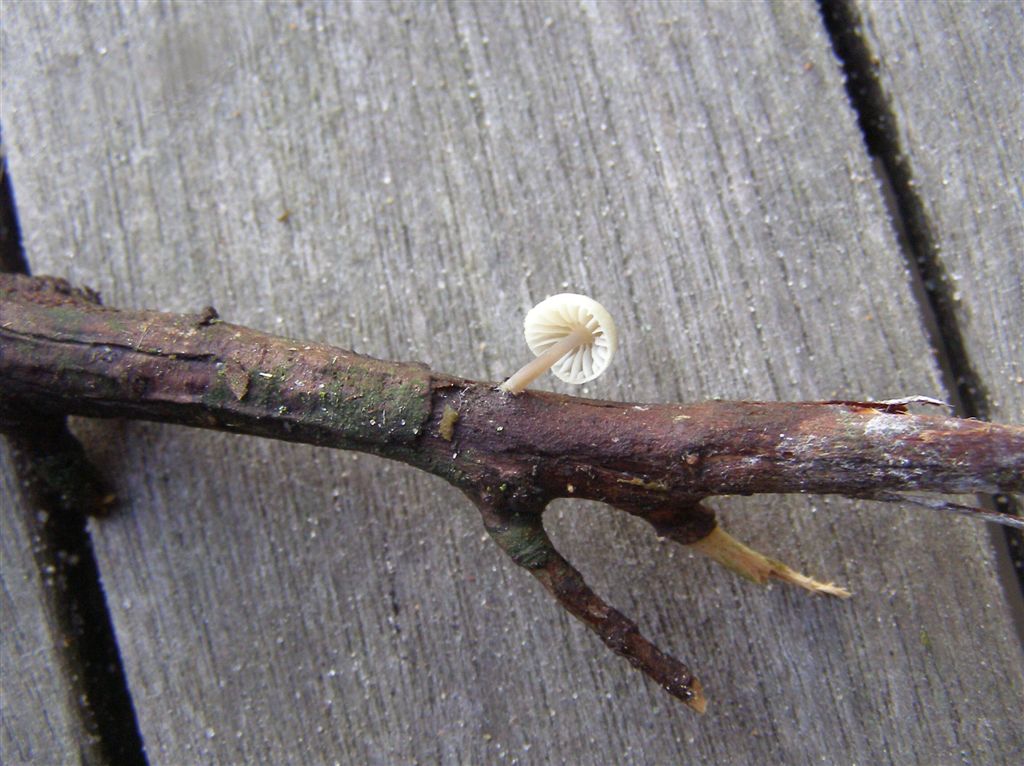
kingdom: Fungi
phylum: Basidiomycota
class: Agaricomycetes
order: Agaricales
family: Mycenaceae
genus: Mycena
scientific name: Mycena arcangeliana
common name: oliven-huesvamp
